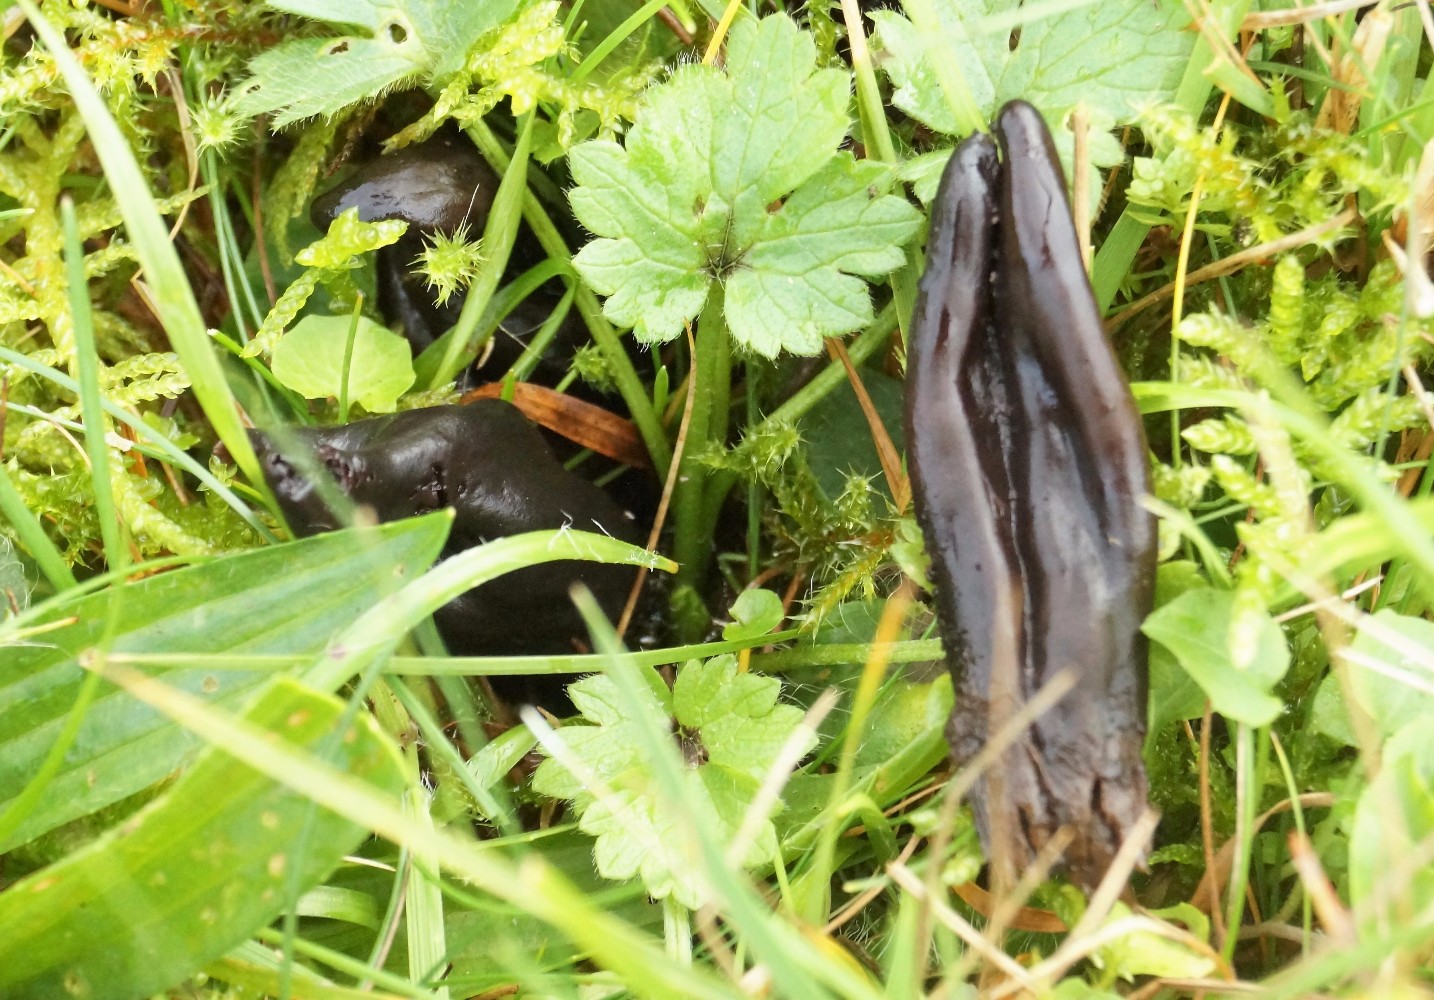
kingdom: Fungi
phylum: Ascomycota
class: Geoglossomycetes
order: Geoglossales
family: Geoglossaceae
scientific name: Geoglossaceae
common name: jordtungefamilien
